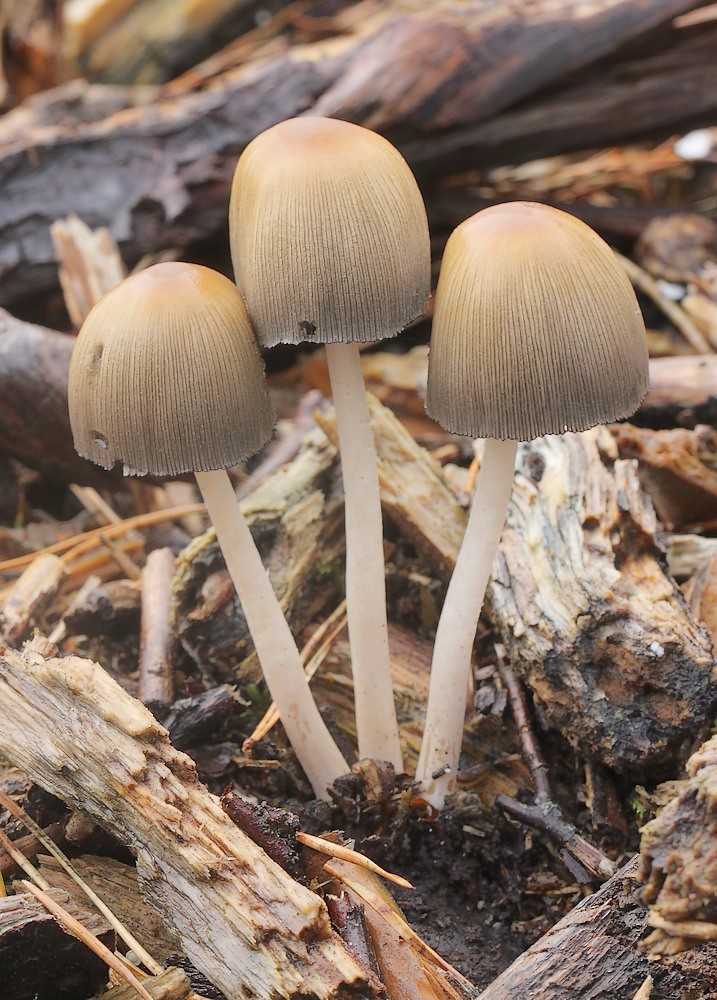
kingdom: Fungi
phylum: Basidiomycota
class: Agaricomycetes
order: Agaricales
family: Psathyrellaceae
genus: Coprinellus
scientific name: Coprinellus
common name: blækhat
